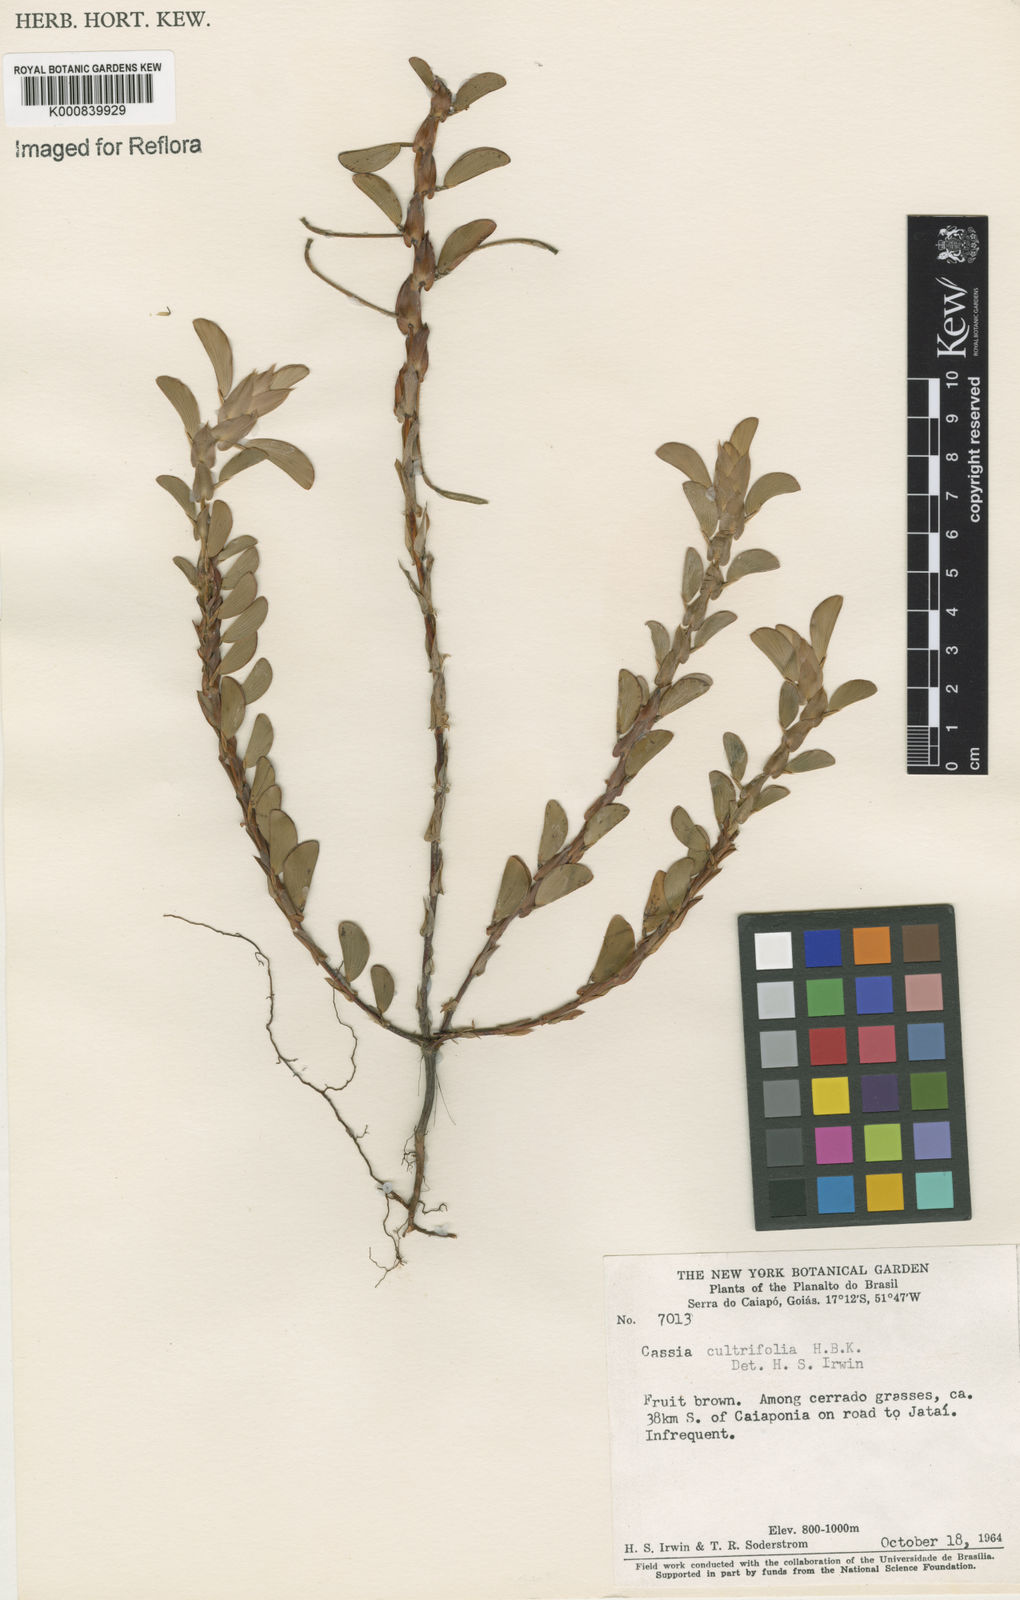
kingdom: Plantae
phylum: Tracheophyta
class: Magnoliopsida
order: Fabales
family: Fabaceae
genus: Chamaecrista
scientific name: Chamaecrista diphylla
